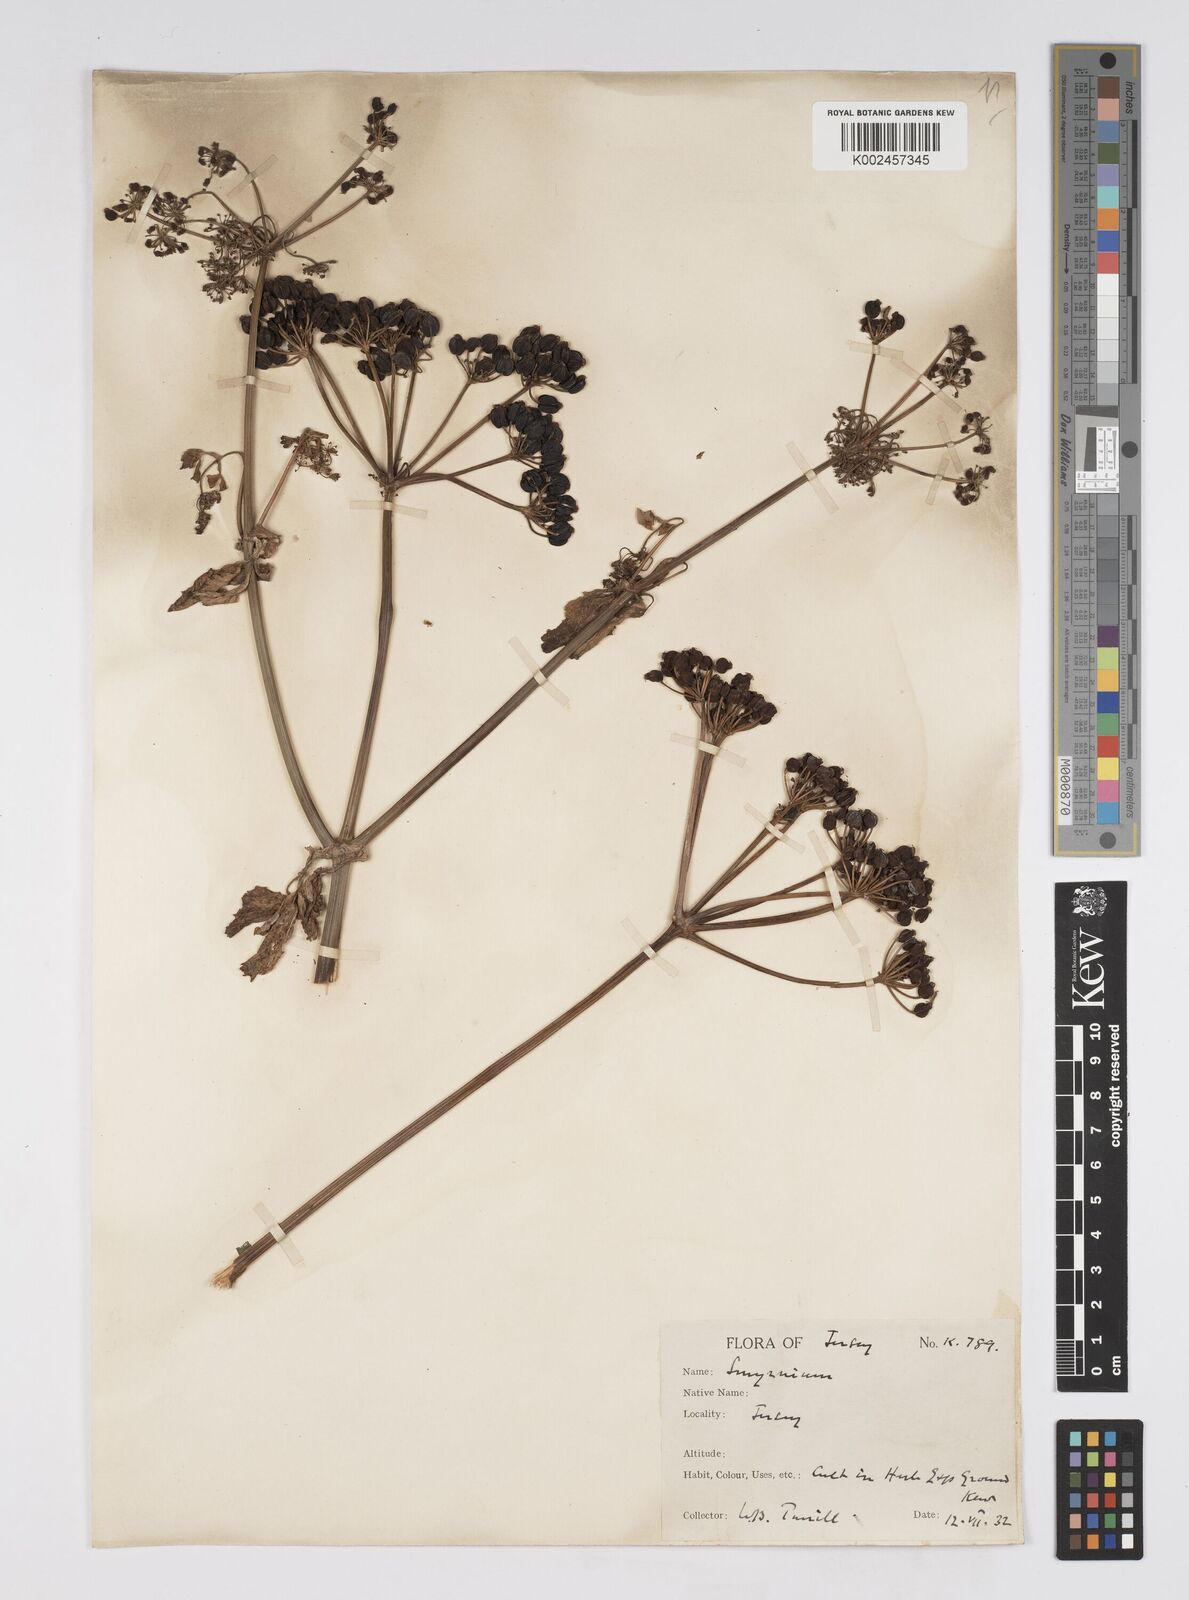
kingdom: Plantae
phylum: Tracheophyta
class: Magnoliopsida
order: Apiales
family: Apiaceae
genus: Smyrnium
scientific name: Smyrnium perfoliatum
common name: Perfoliate alexanders
